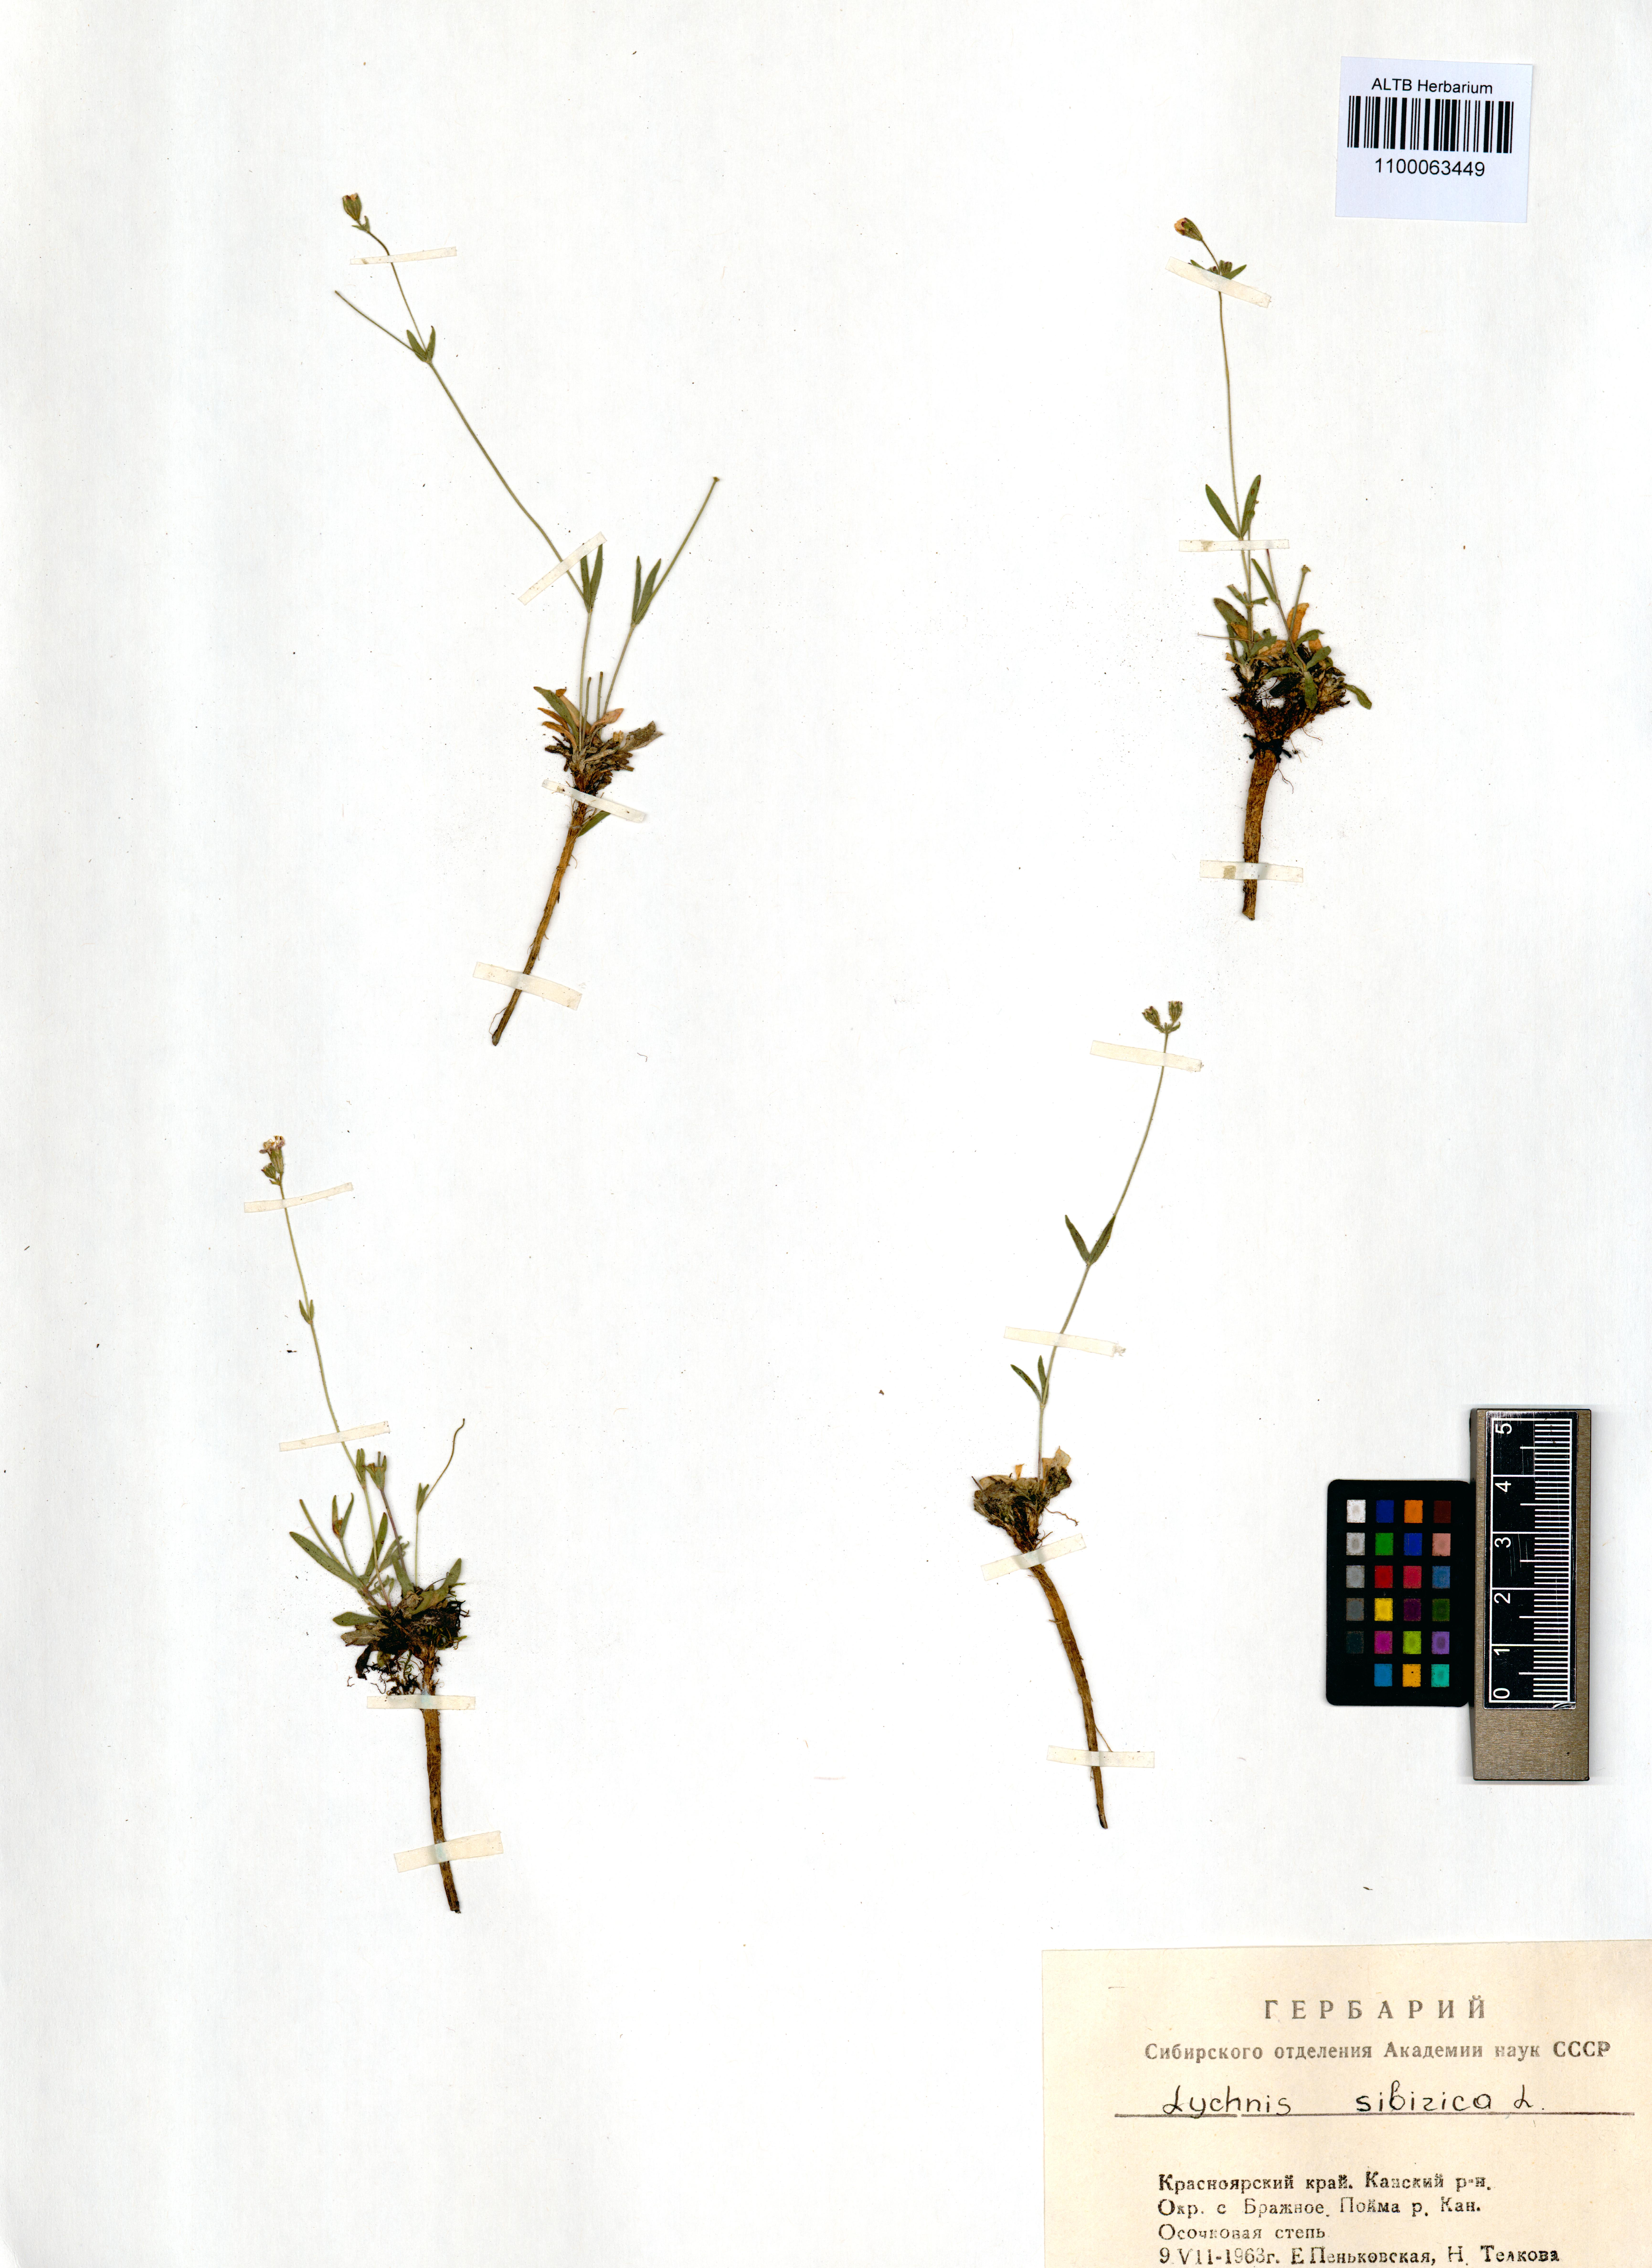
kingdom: Plantae
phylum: Tracheophyta
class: Magnoliopsida
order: Caryophyllales
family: Caryophyllaceae
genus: Silene
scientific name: Silene orientalimongolica
